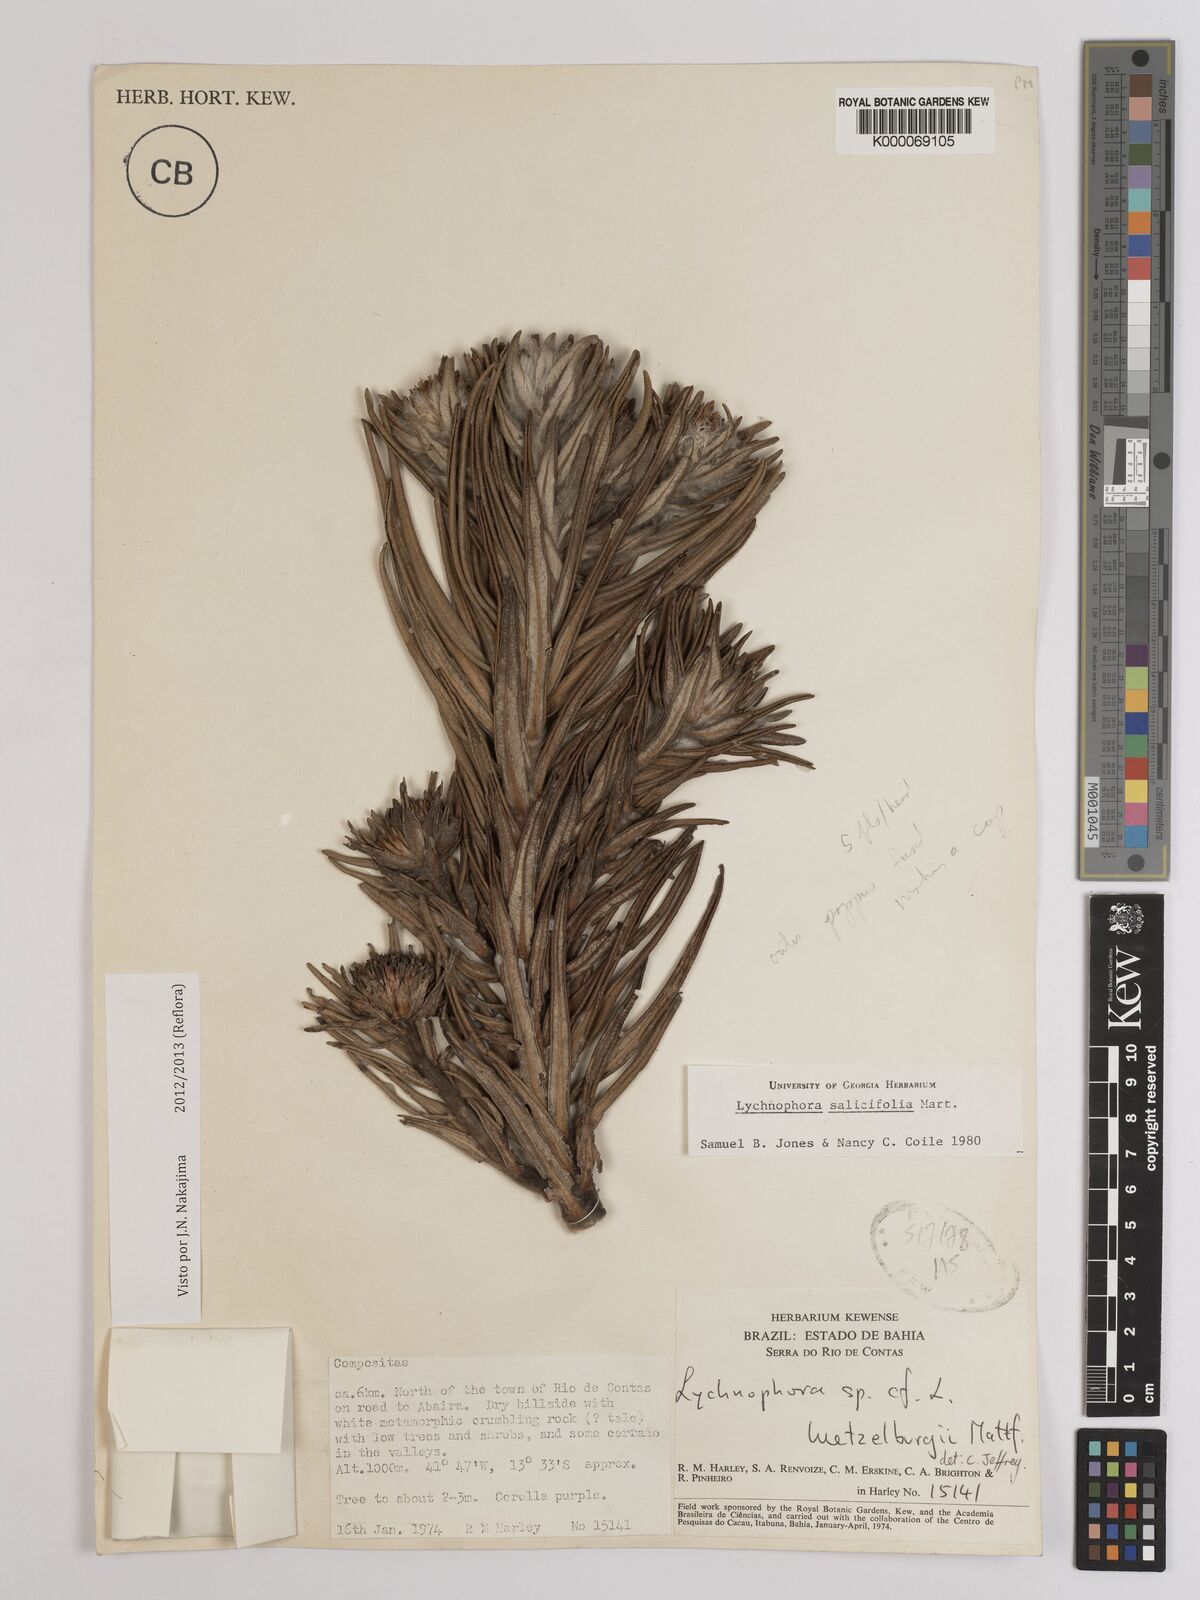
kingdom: Plantae
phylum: Tracheophyta
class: Magnoliopsida
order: Asterales
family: Asteraceae
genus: Lychnophora
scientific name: Lychnophora salicifolia
